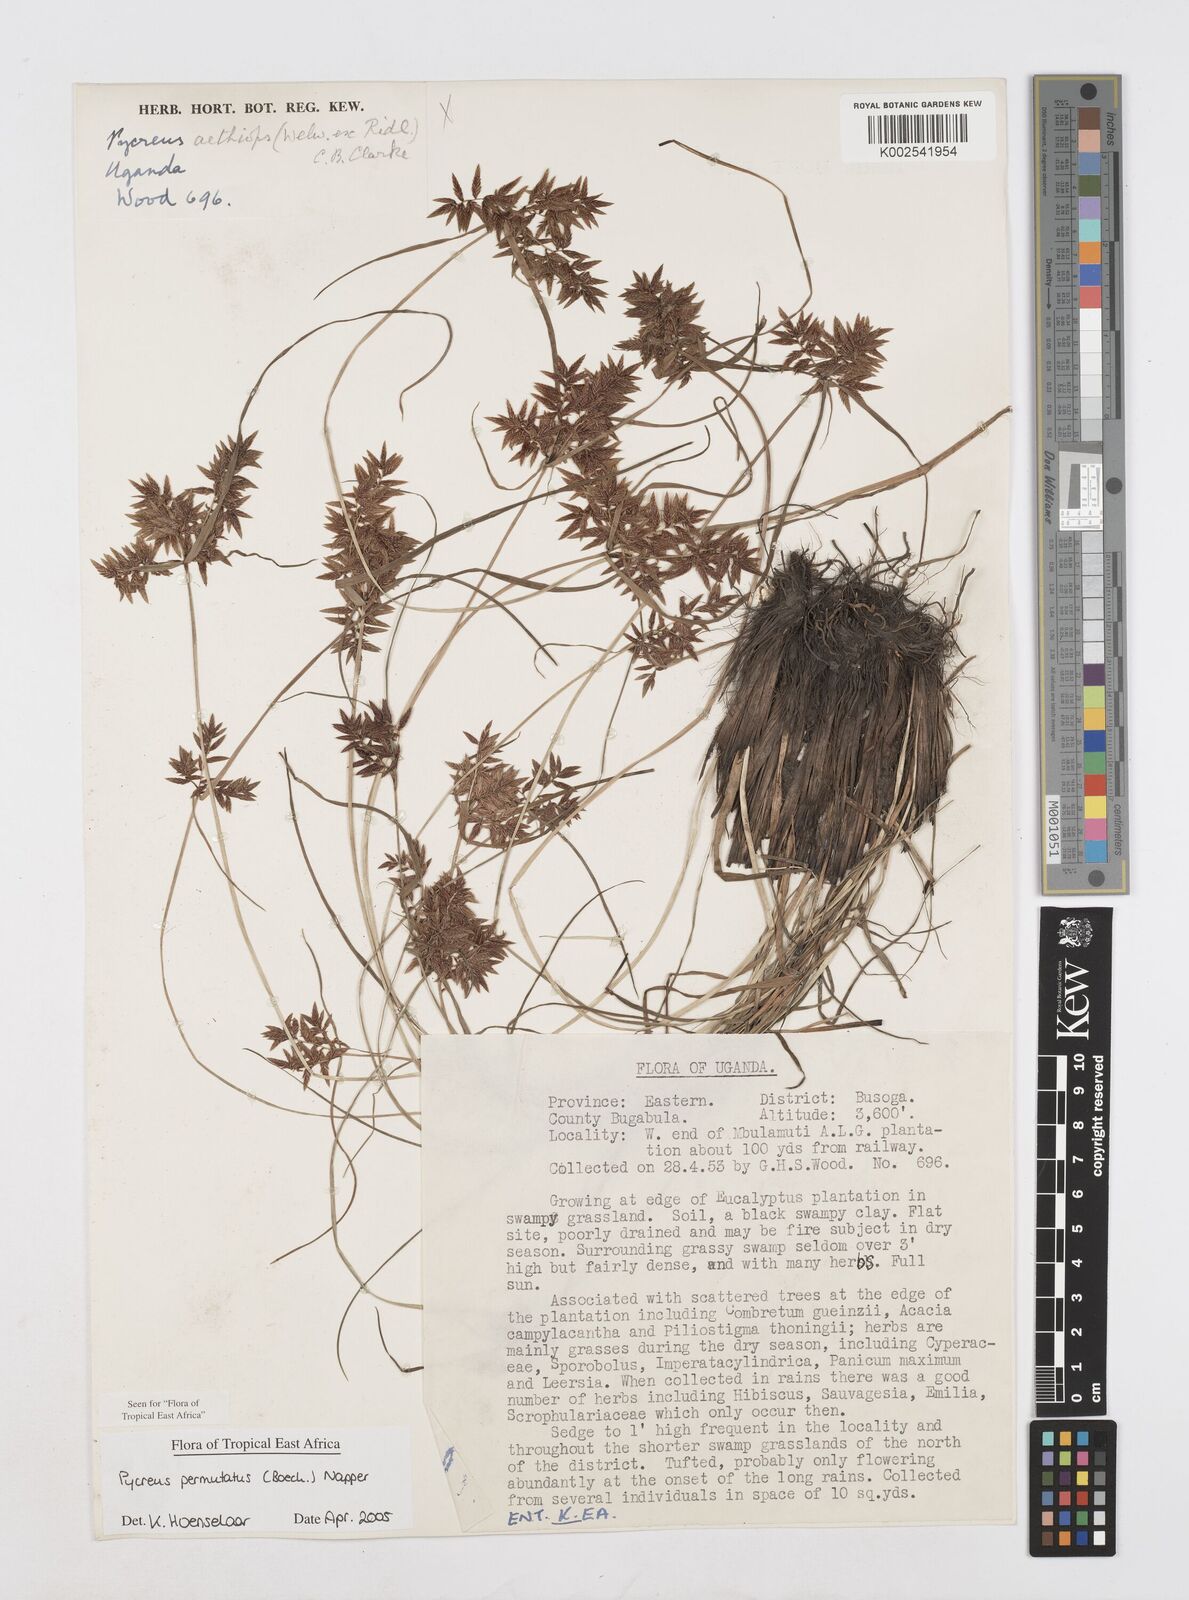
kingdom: Plantae
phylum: Tracheophyta
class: Liliopsida
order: Poales
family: Cyperaceae
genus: Cyperus
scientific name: Cyperus nigricans
